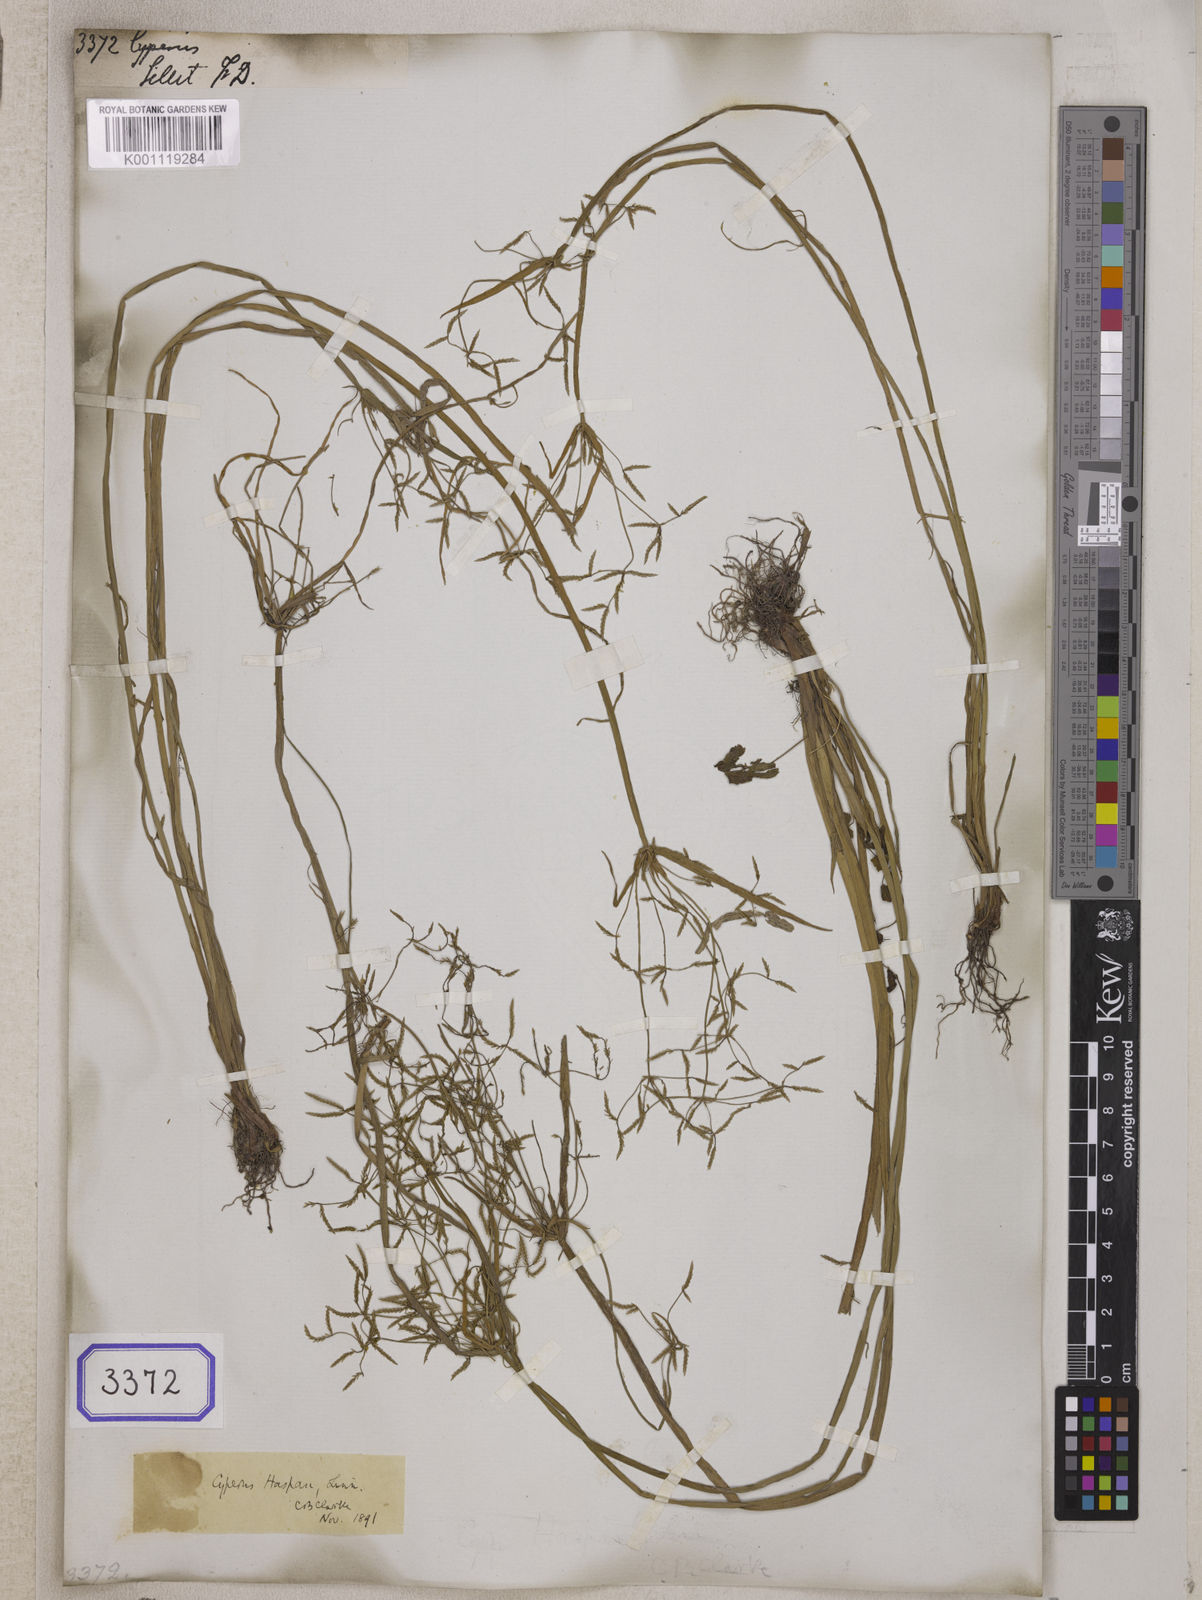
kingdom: Plantae
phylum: Tracheophyta
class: Liliopsida
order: Poales
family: Cyperaceae
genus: Cyperus
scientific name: Cyperus
